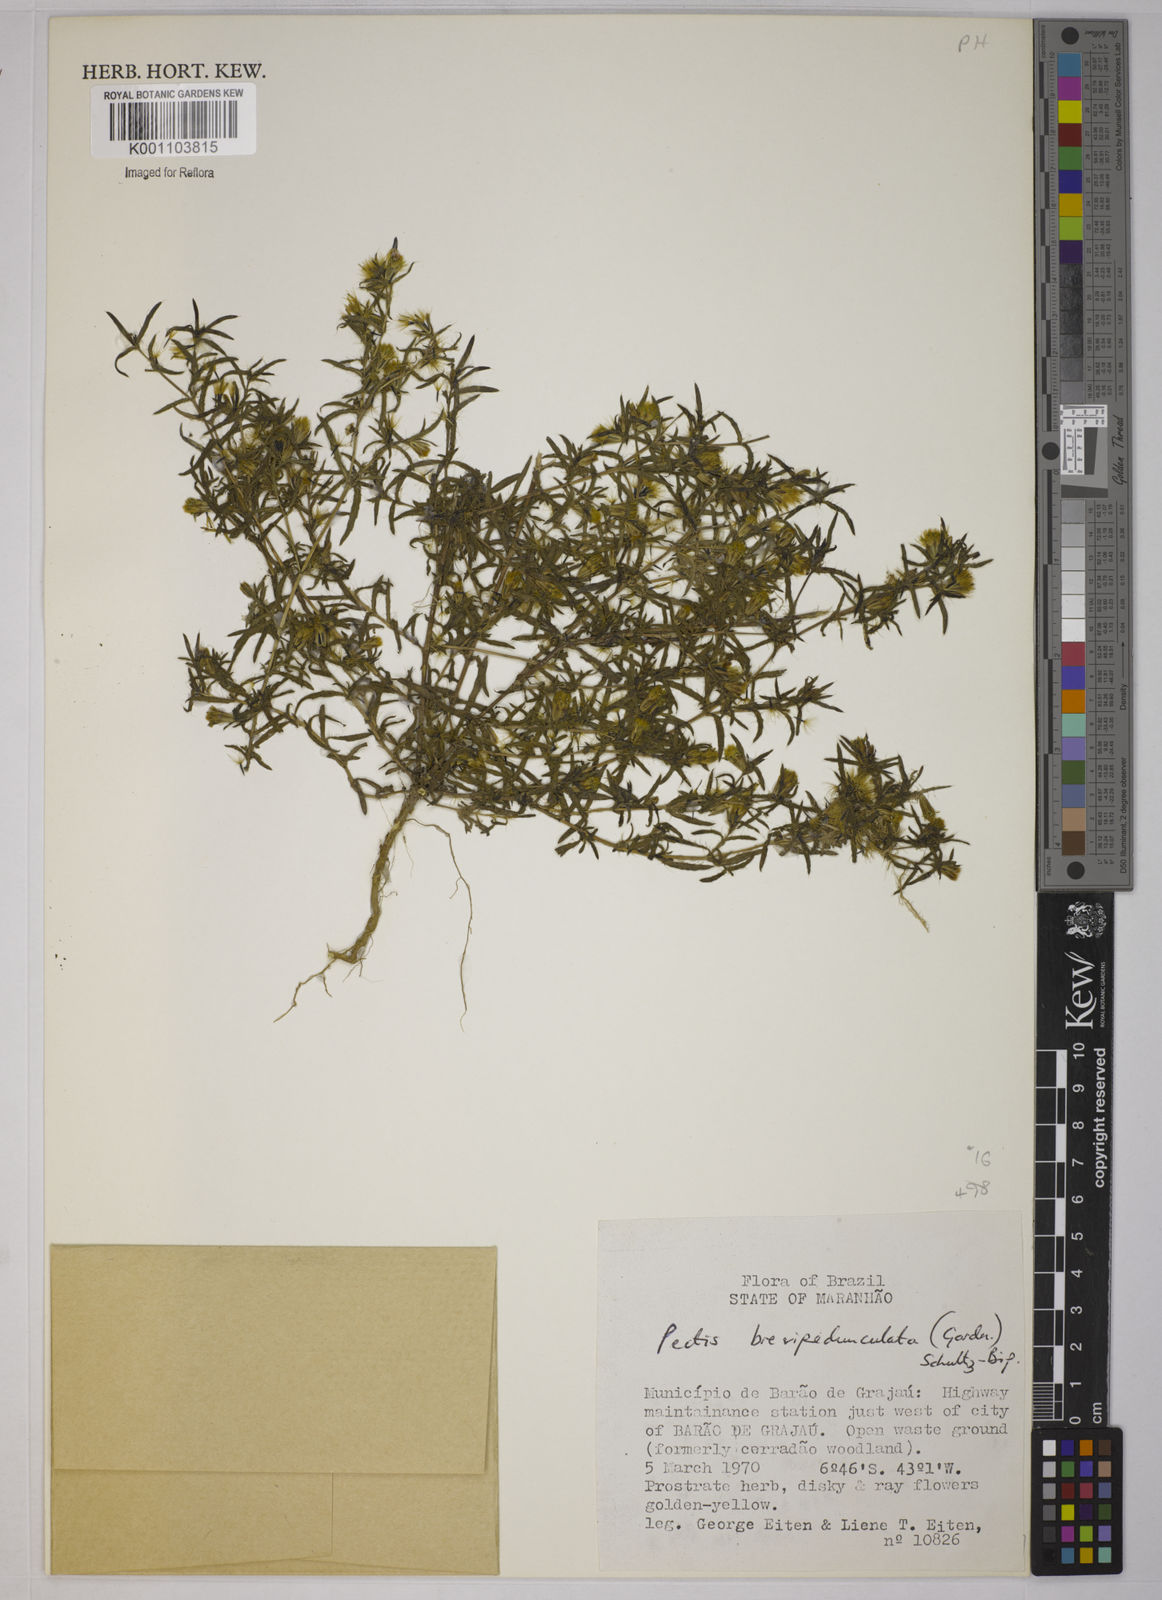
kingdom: Plantae
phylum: Tracheophyta
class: Magnoliopsida
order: Asterales
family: Asteraceae
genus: Pectis
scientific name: Pectis brevipedunculata
